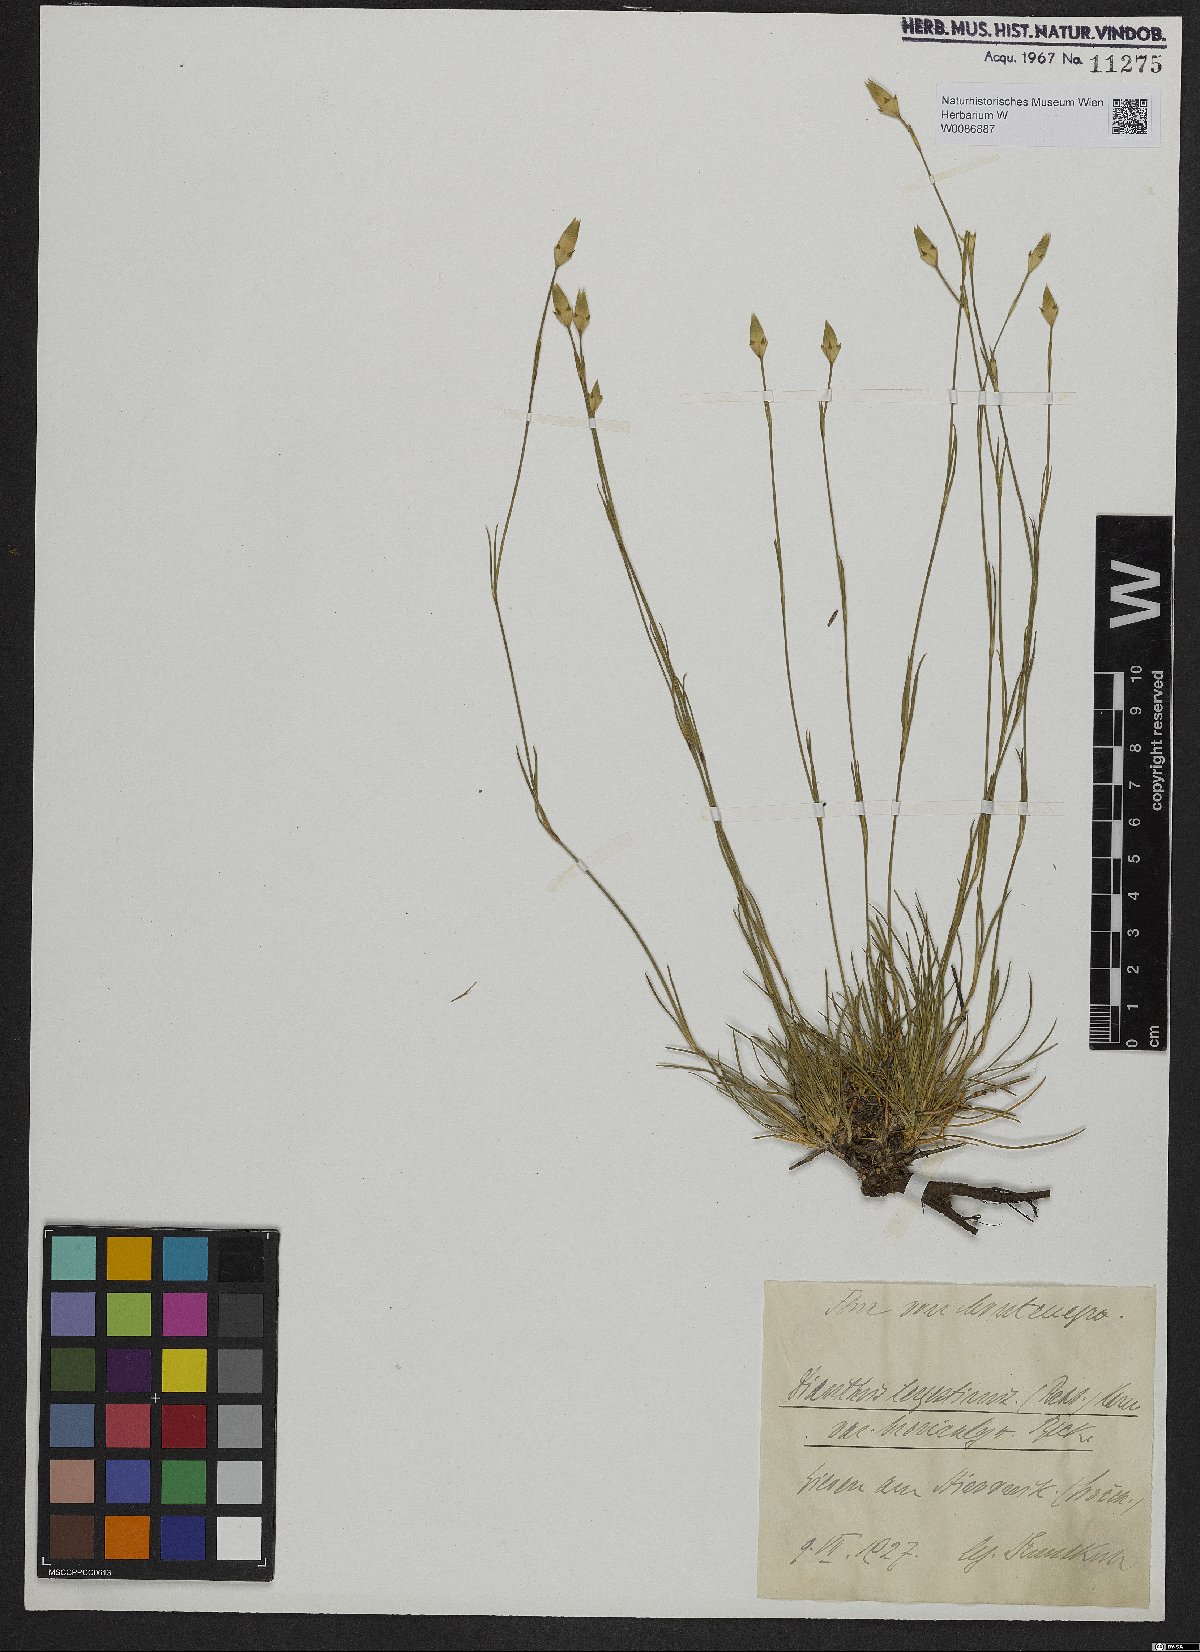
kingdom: Plantae
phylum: Tracheophyta
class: Magnoliopsida
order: Caryophyllales
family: Caryophyllaceae
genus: Dianthus
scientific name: Dianthus sylvestris
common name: Wood pink
